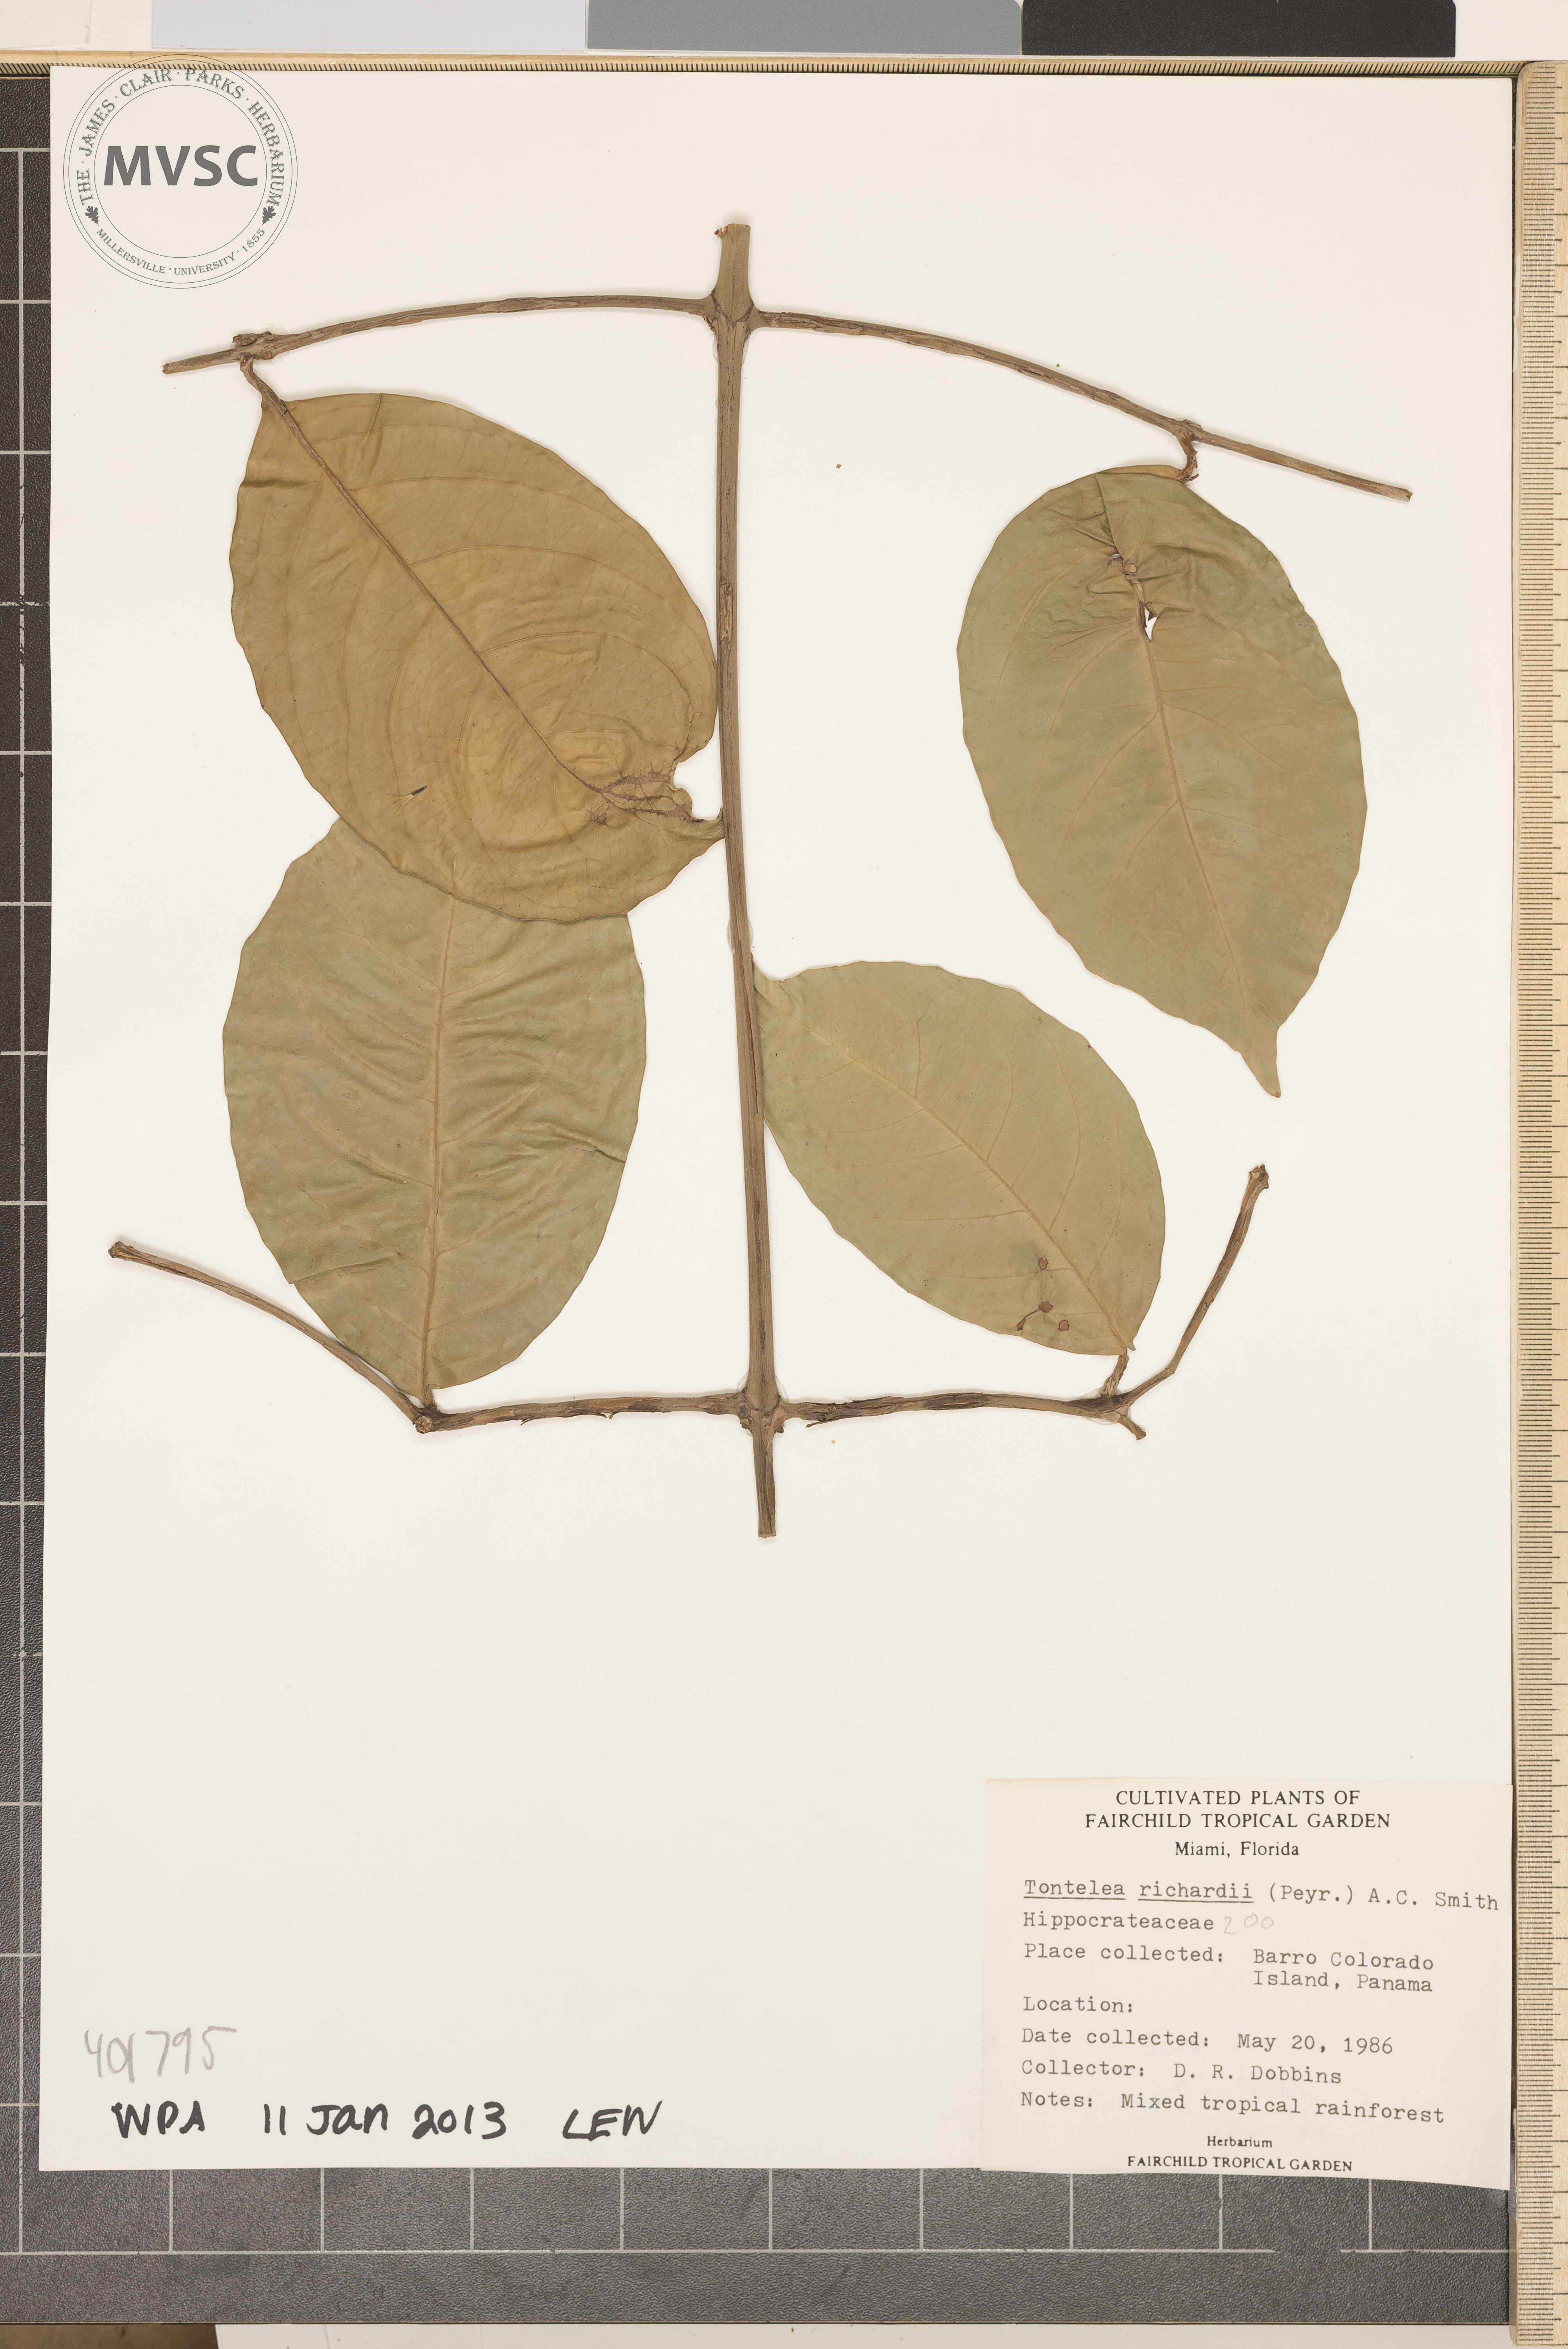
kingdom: Plantae
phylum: Tracheophyta
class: Magnoliopsida
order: Celastrales
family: Celastraceae
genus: Tontelea
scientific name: Tontelea passiflora
